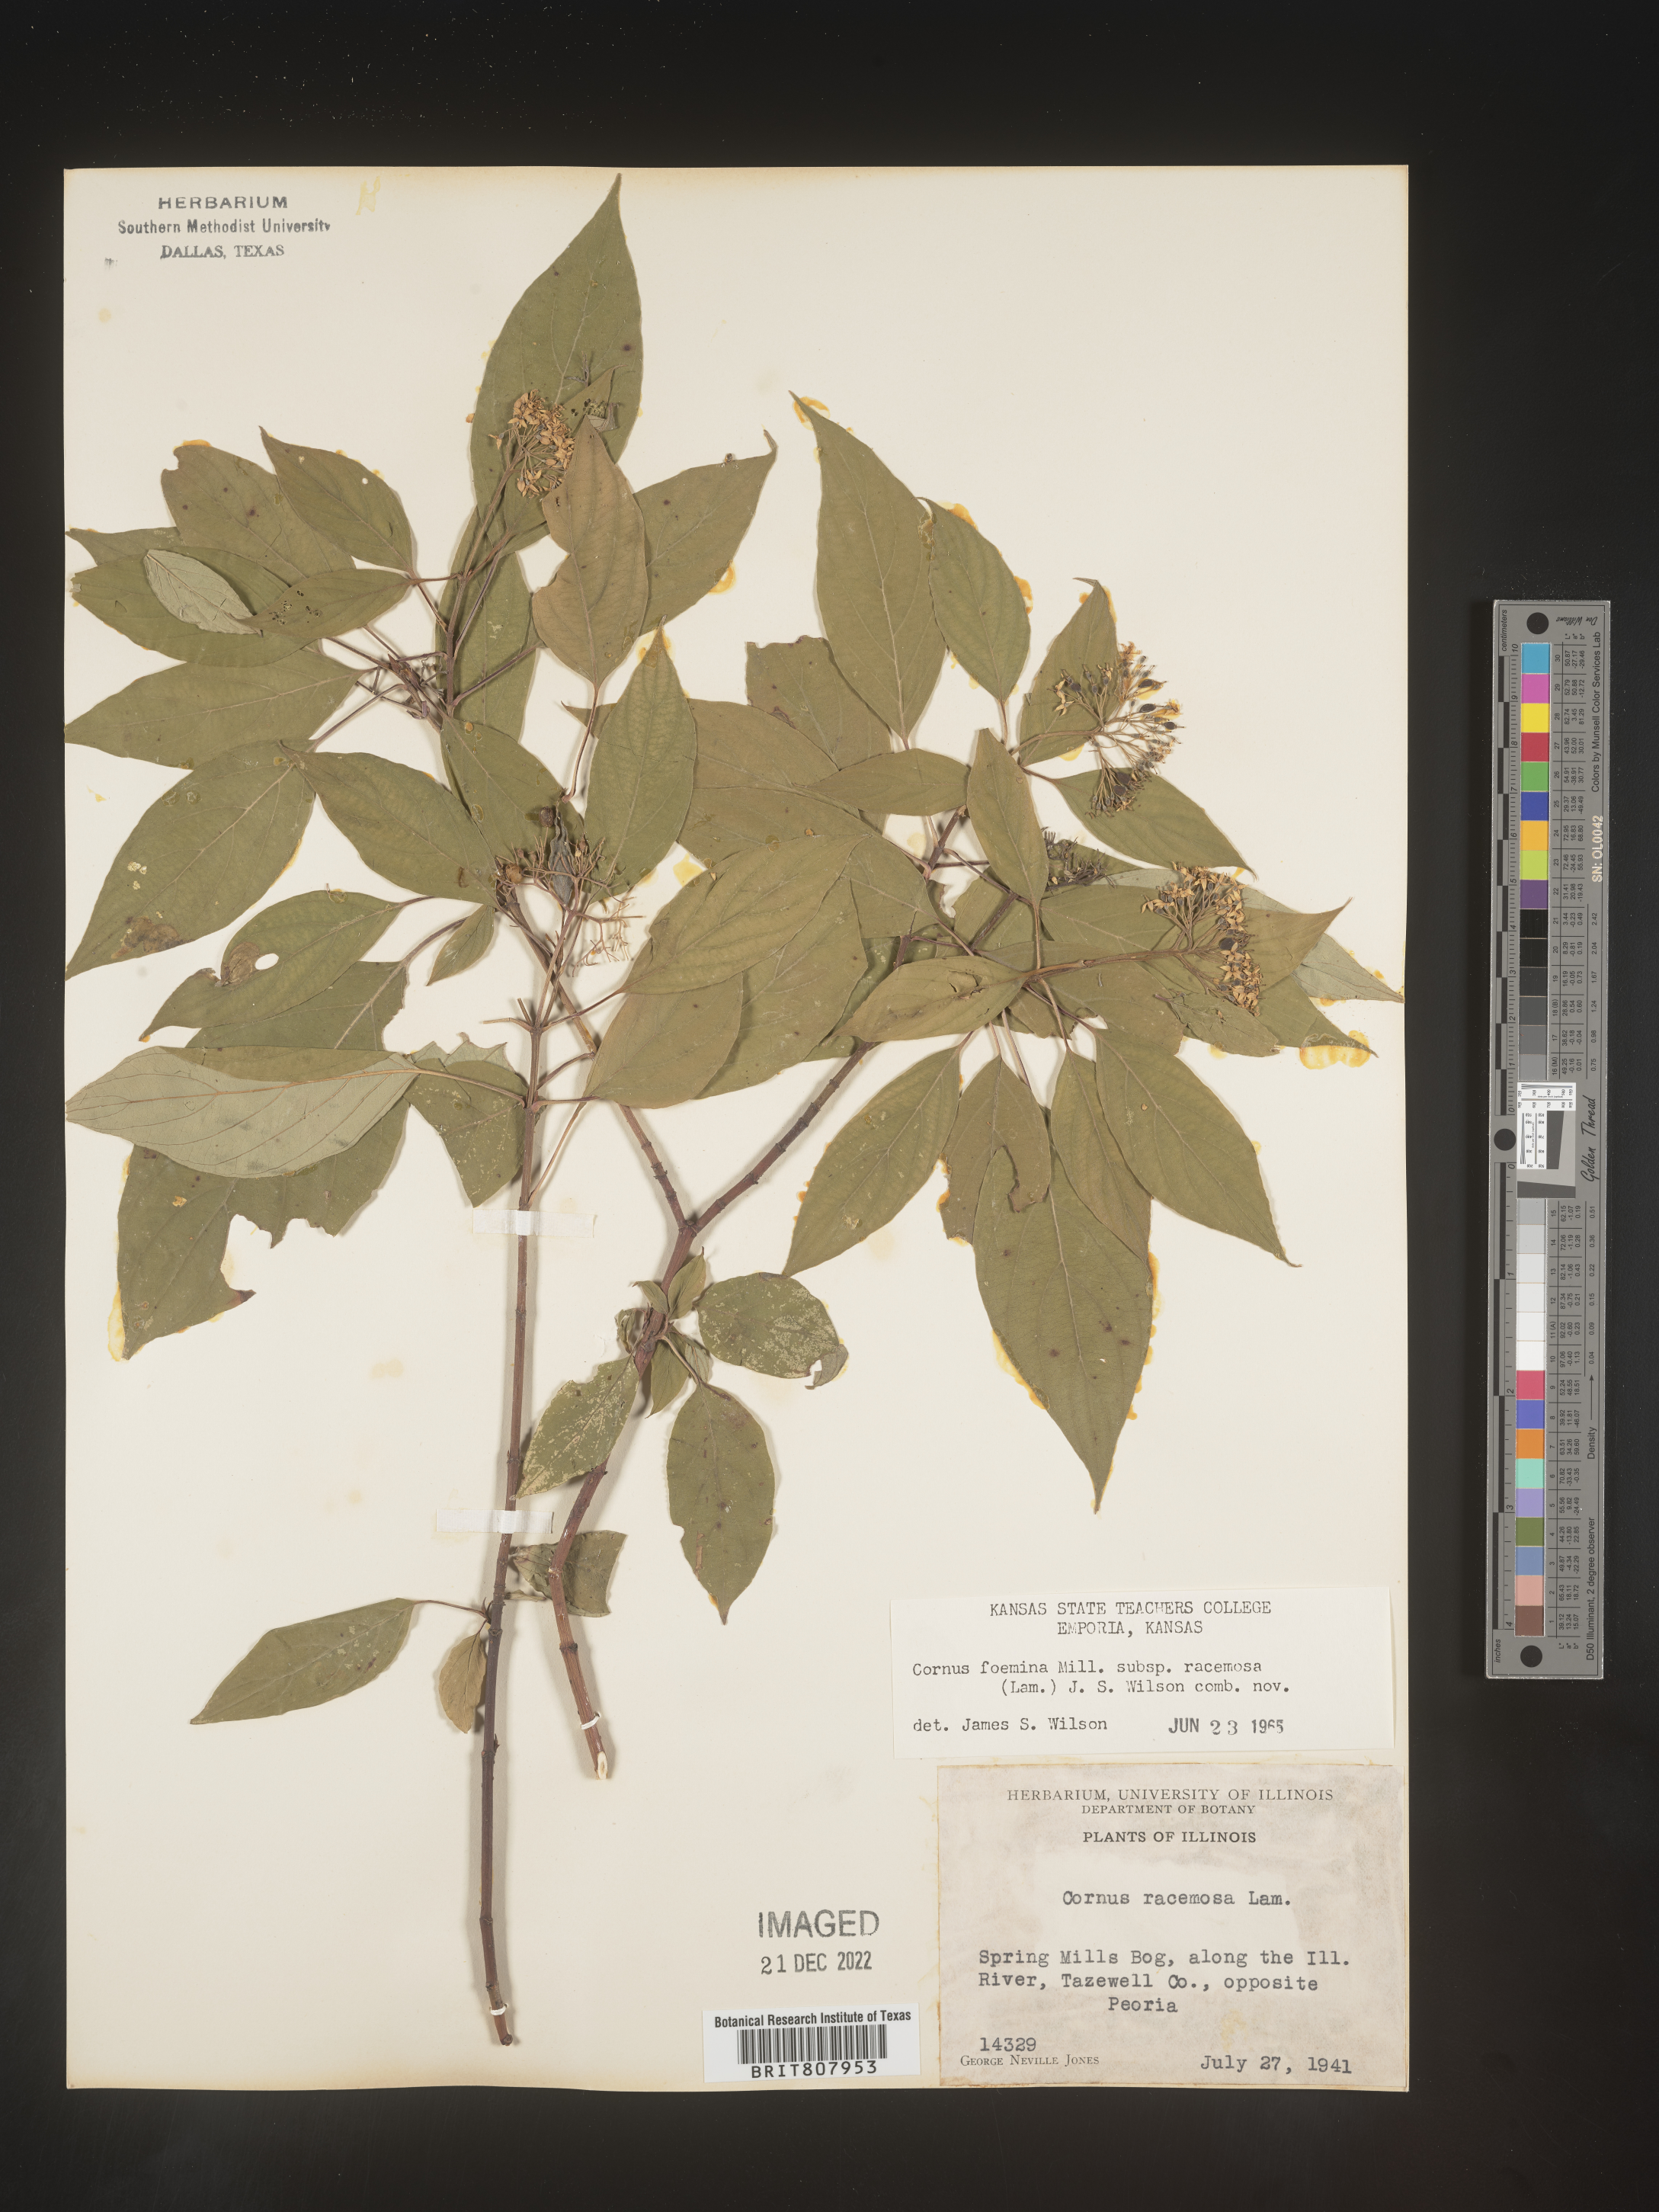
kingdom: Plantae
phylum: Tracheophyta
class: Magnoliopsida
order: Cornales
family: Cornaceae
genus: Cornus
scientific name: Cornus racemosa
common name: Panicled dogwood
